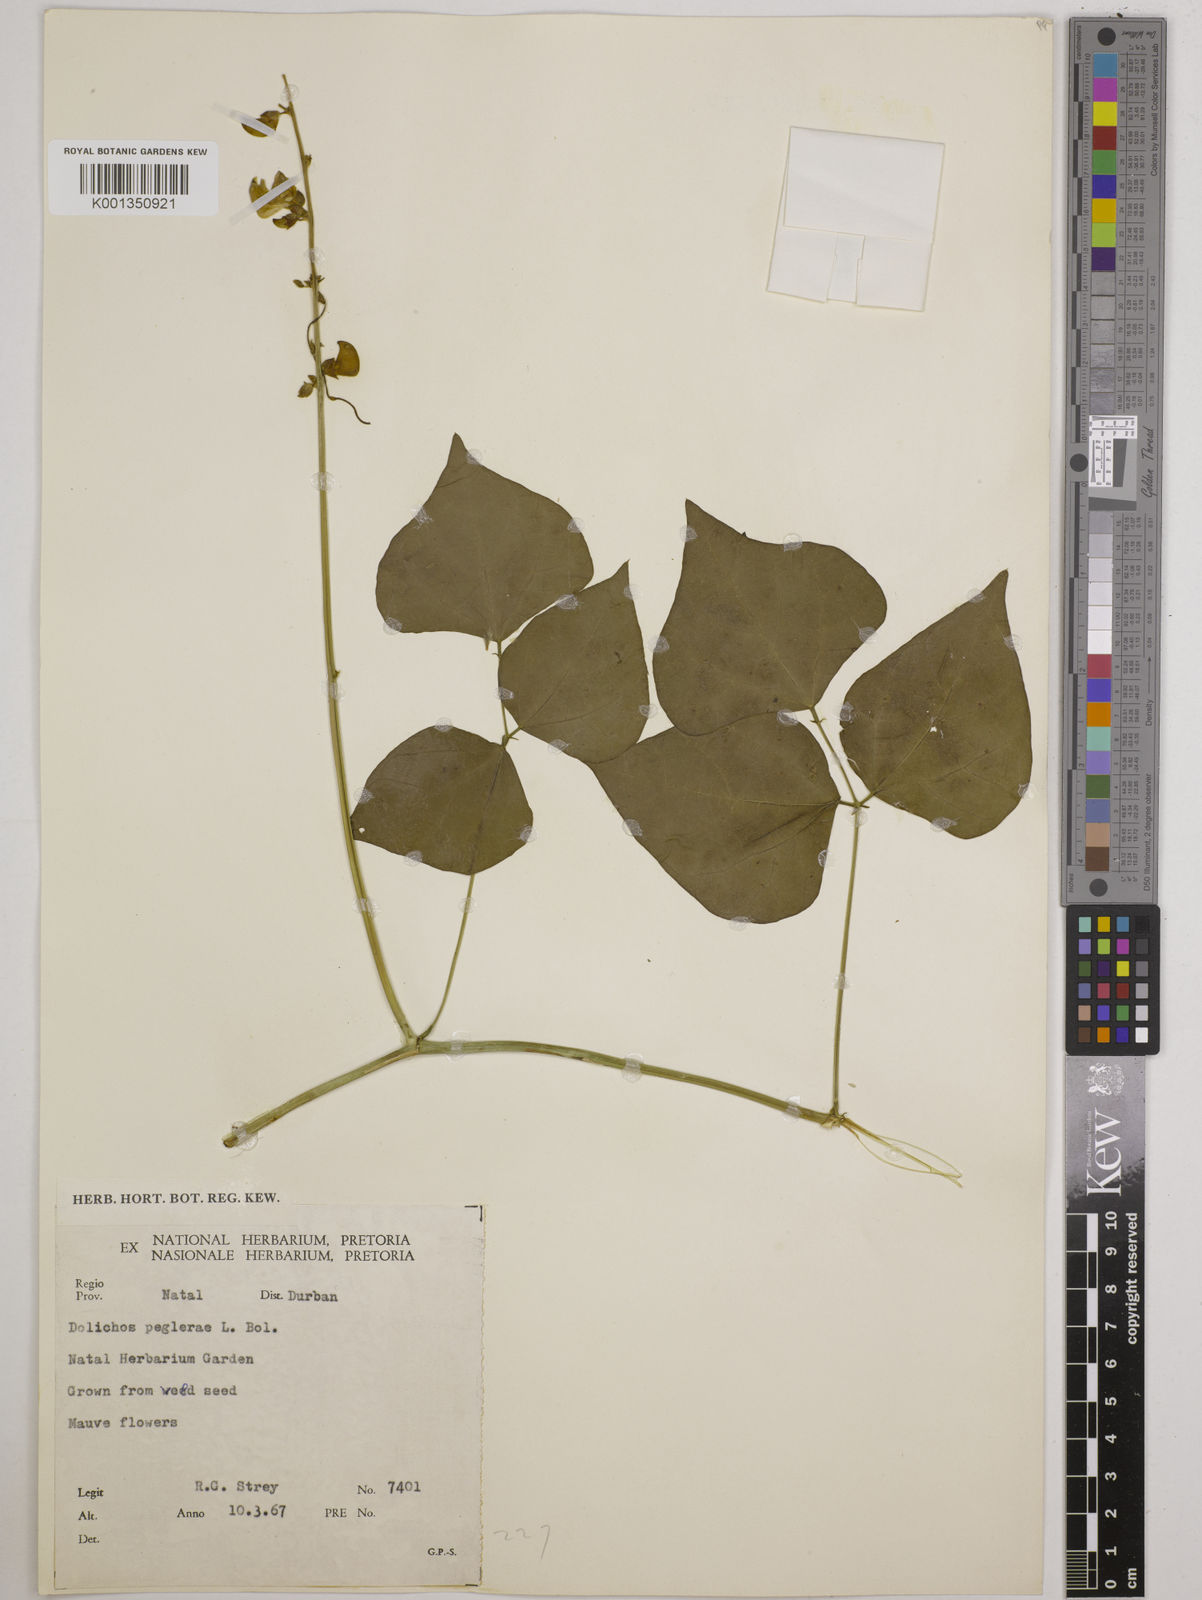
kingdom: Plantae
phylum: Tracheophyta
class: Magnoliopsida
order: Fabales
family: Fabaceae
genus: Dolichos
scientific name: Dolichos peglerae
